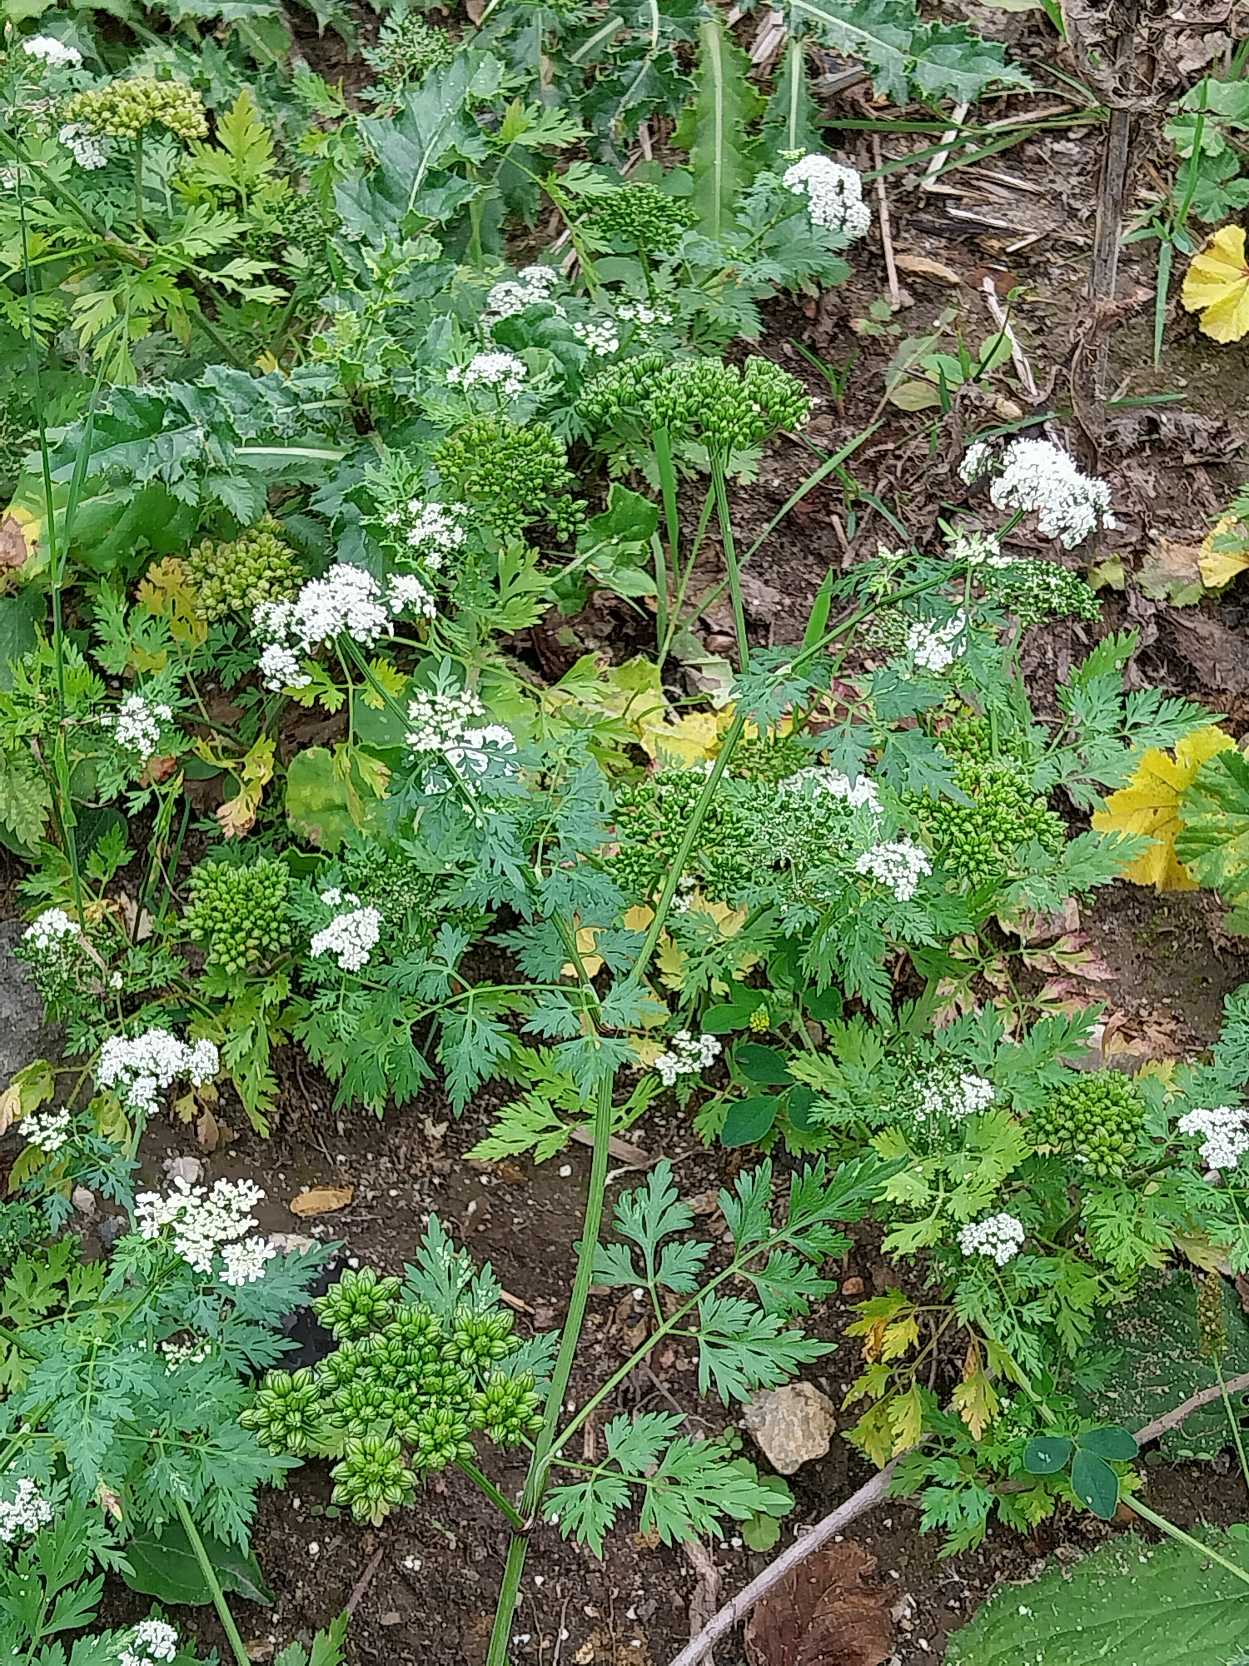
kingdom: Plantae
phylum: Tracheophyta
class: Magnoliopsida
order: Apiales
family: Apiaceae
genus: Aethusa
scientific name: Aethusa cynapium
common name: Hundepersille
